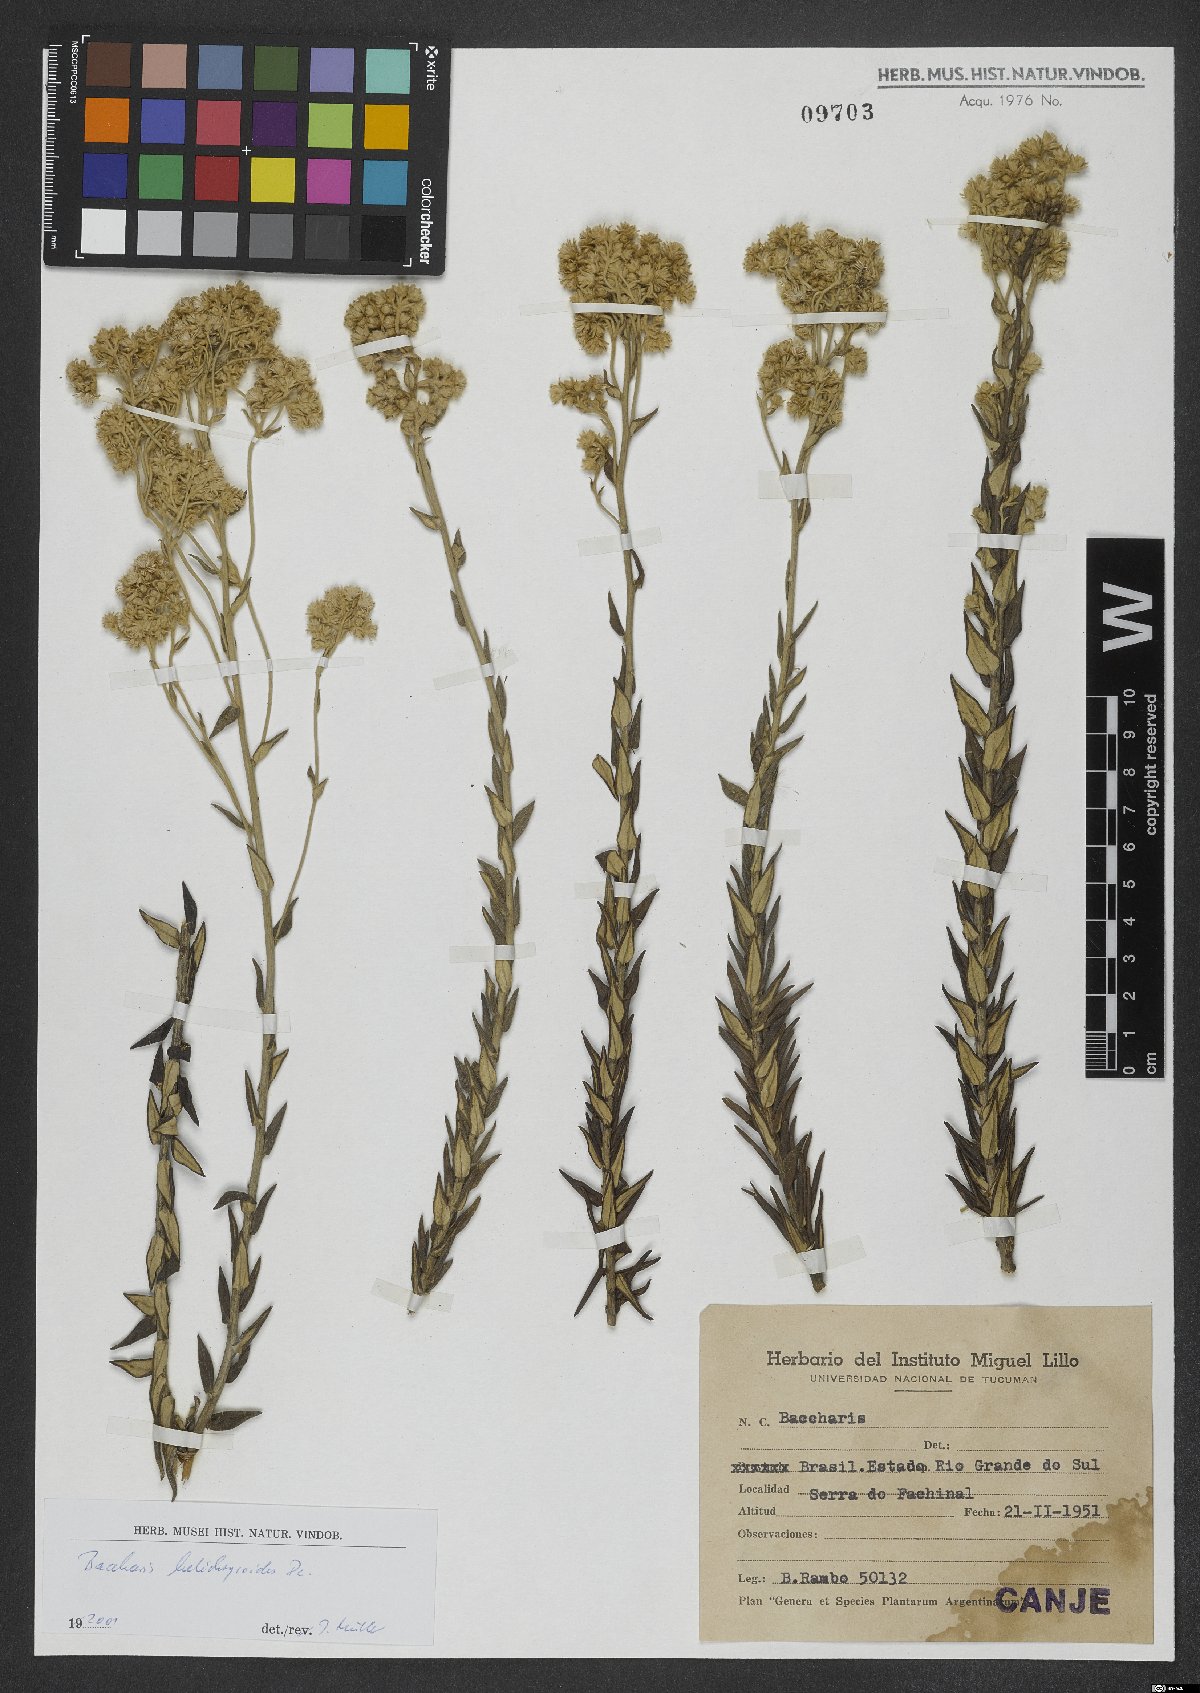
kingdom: Plantae
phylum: Tracheophyta
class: Magnoliopsida
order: Asterales
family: Asteraceae
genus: Baccharis
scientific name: Baccharis helichrysoides
